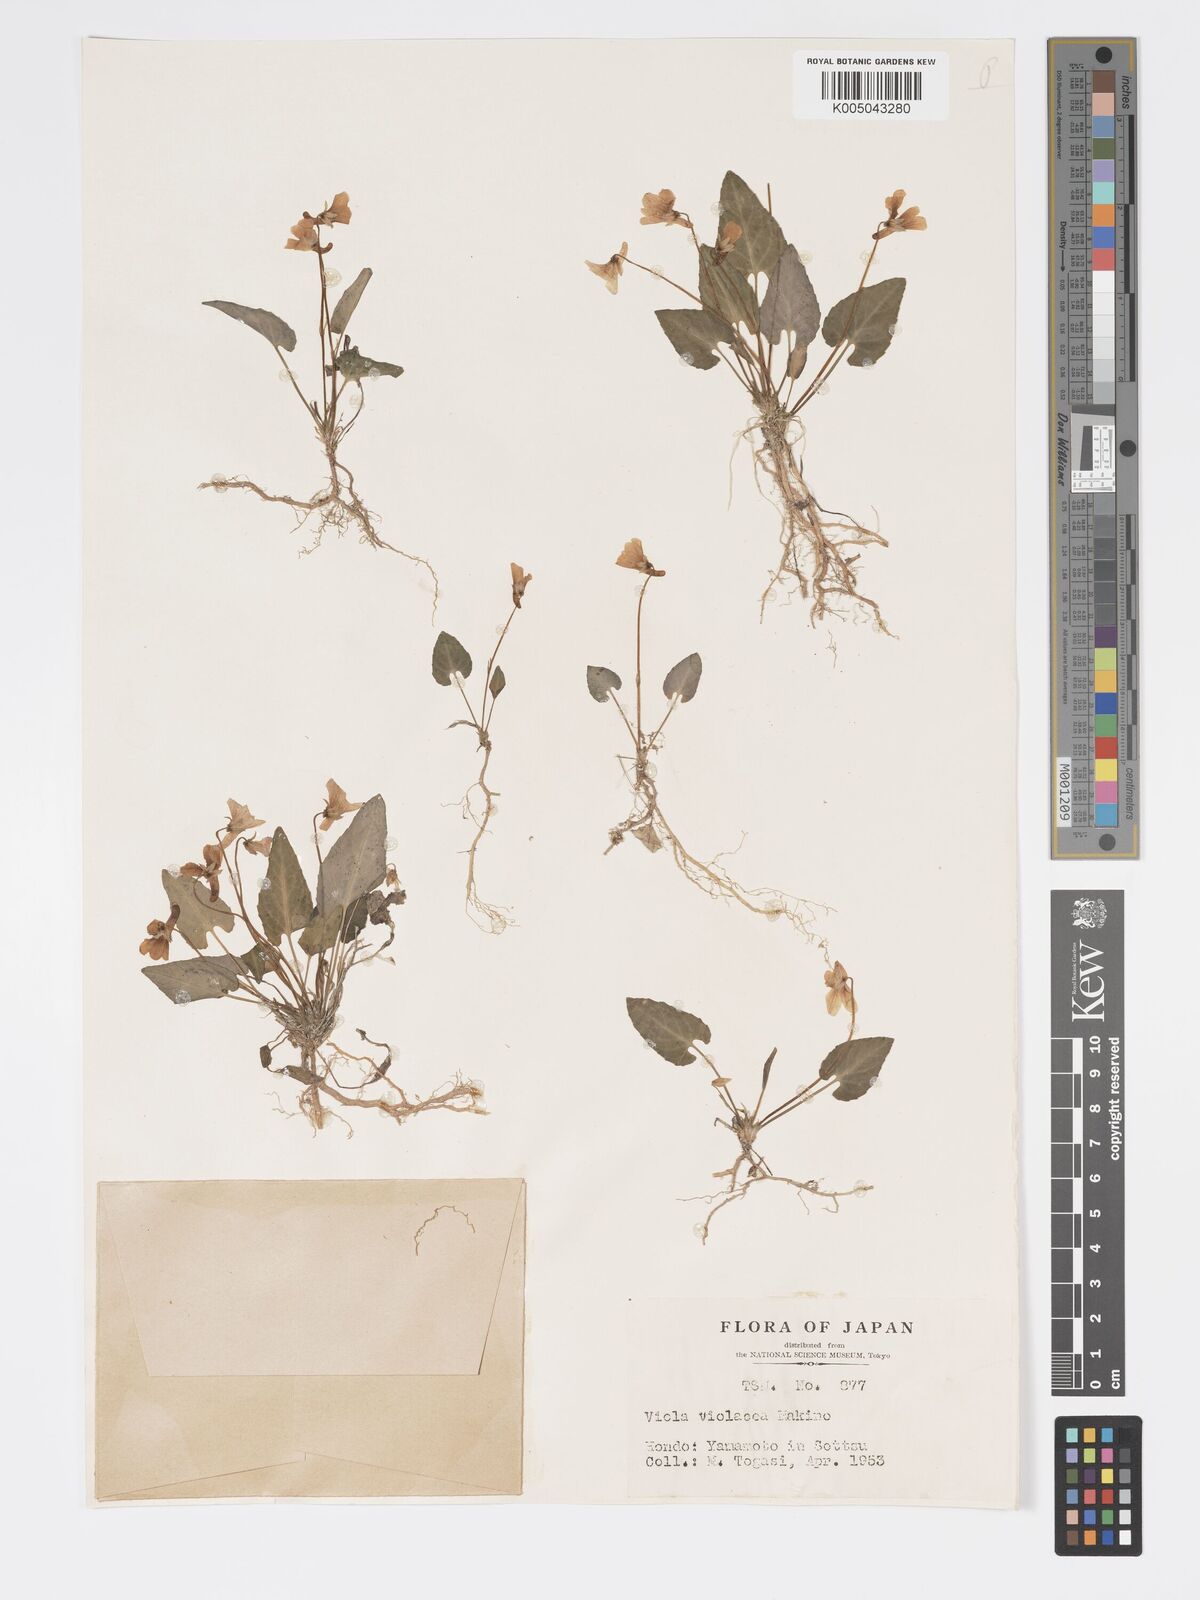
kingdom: Plantae
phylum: Tracheophyta
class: Magnoliopsida
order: Malpighiales
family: Violaceae
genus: Viola
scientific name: Viola violacea
